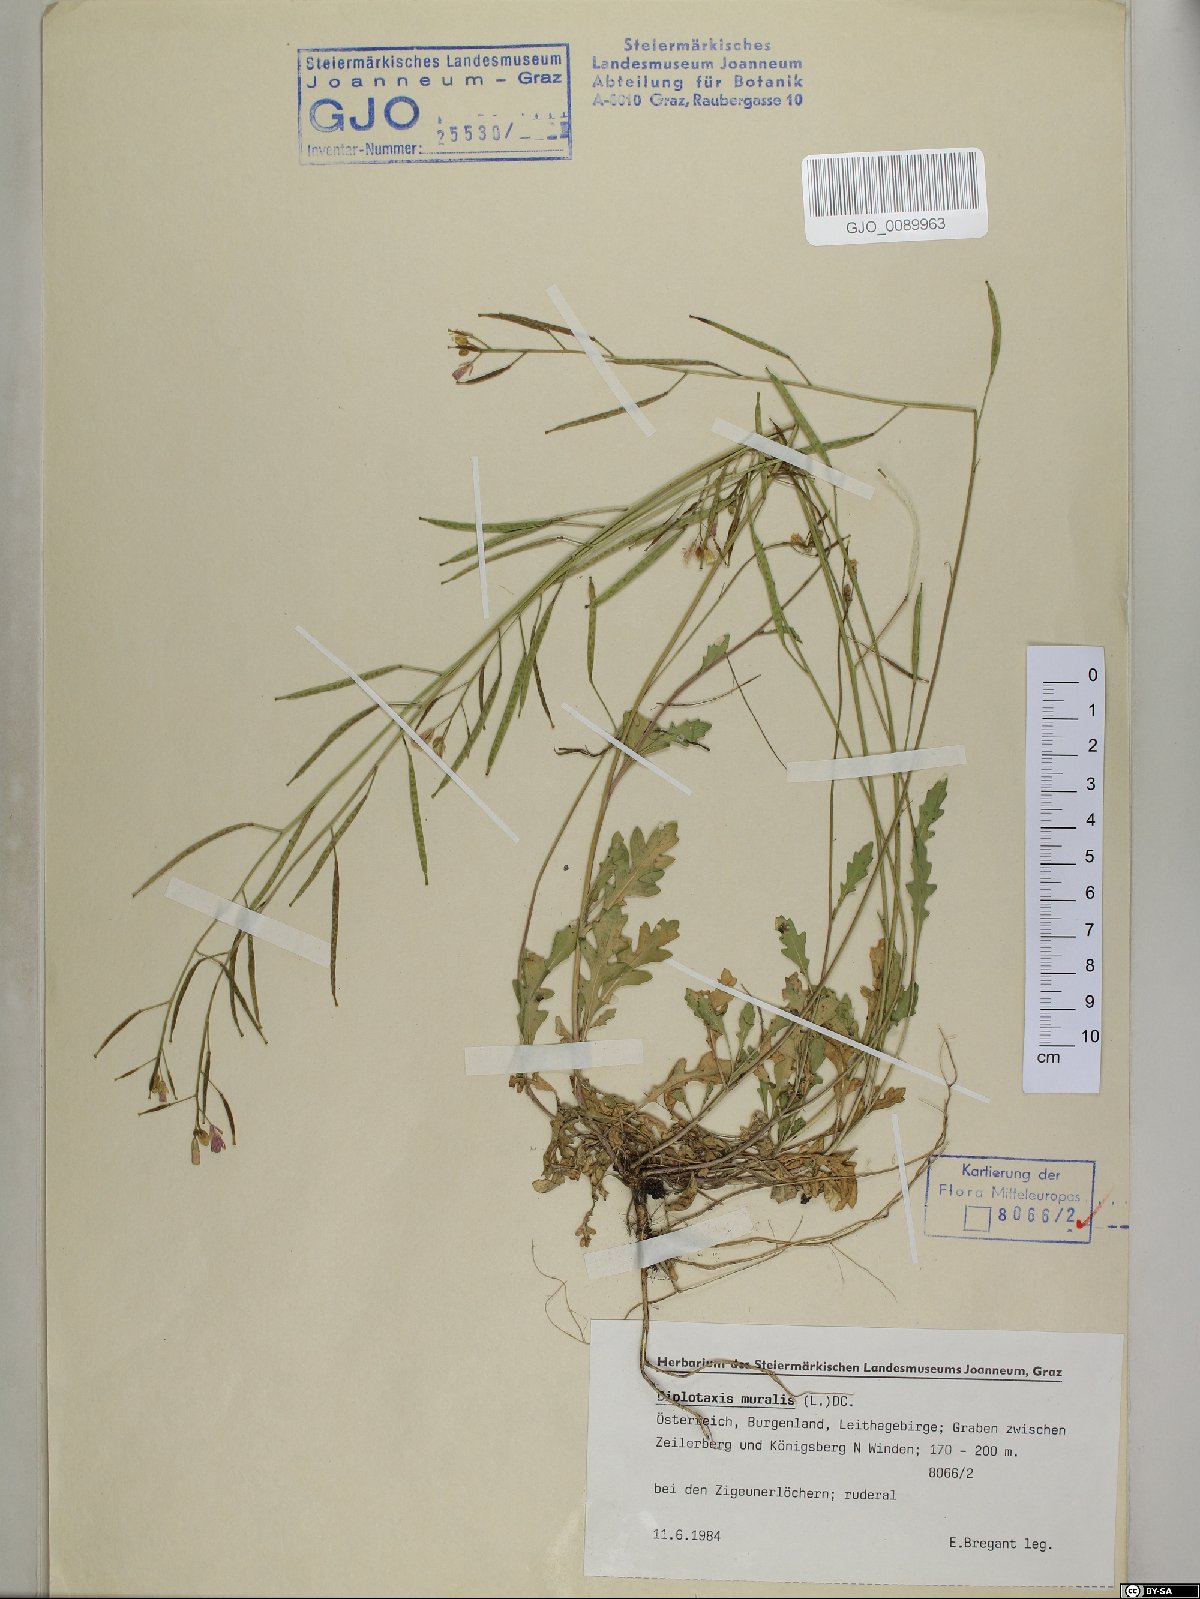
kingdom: Plantae
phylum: Tracheophyta
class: Magnoliopsida
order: Brassicales
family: Brassicaceae
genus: Diplotaxis
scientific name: Diplotaxis muralis
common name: Annual wall-rocket
